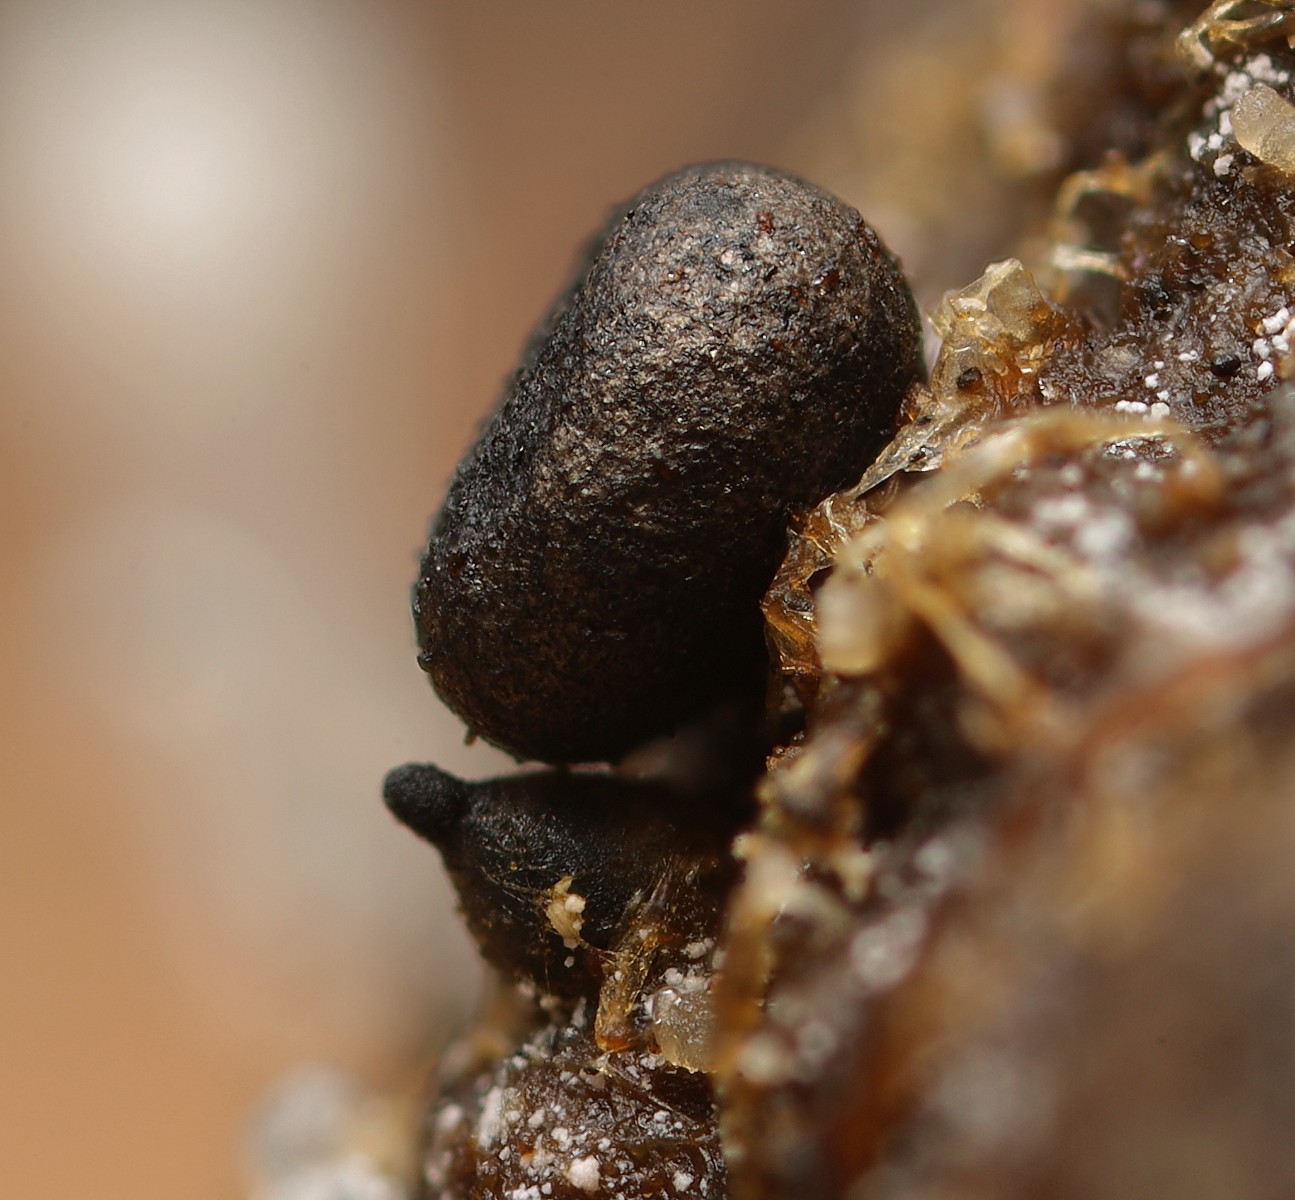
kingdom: Fungi
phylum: Basidiomycota
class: Agaricomycetes
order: Agaricales
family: Typhulaceae
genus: Sclerotium
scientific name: Sclerotium
